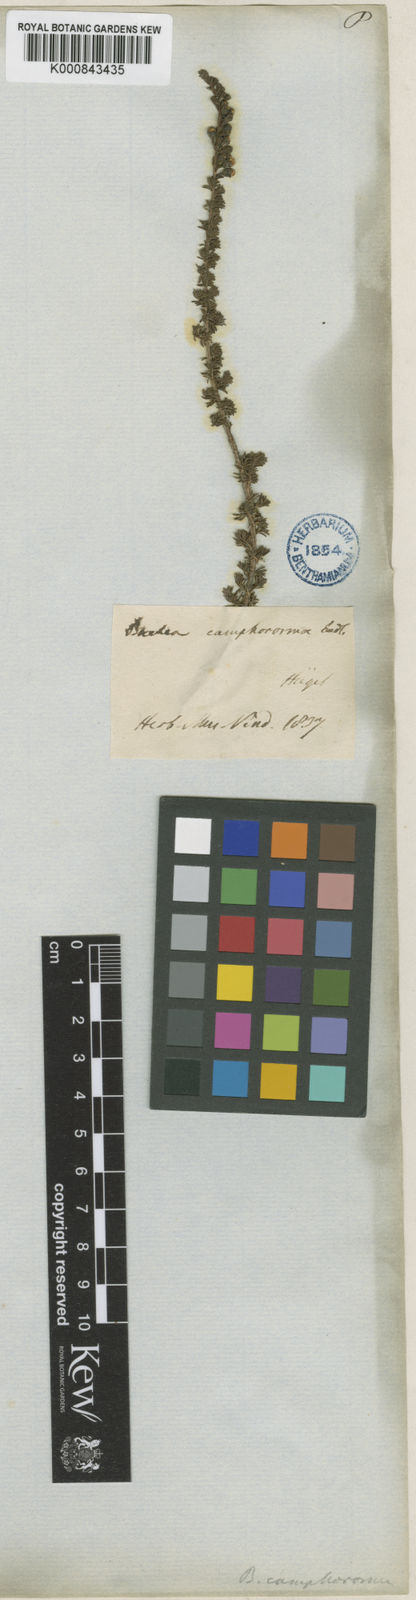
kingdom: Plantae
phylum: Tracheophyta
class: Magnoliopsida
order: Myrtales
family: Myrtaceae
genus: Babingtonia
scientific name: Babingtonia camphorosmae
